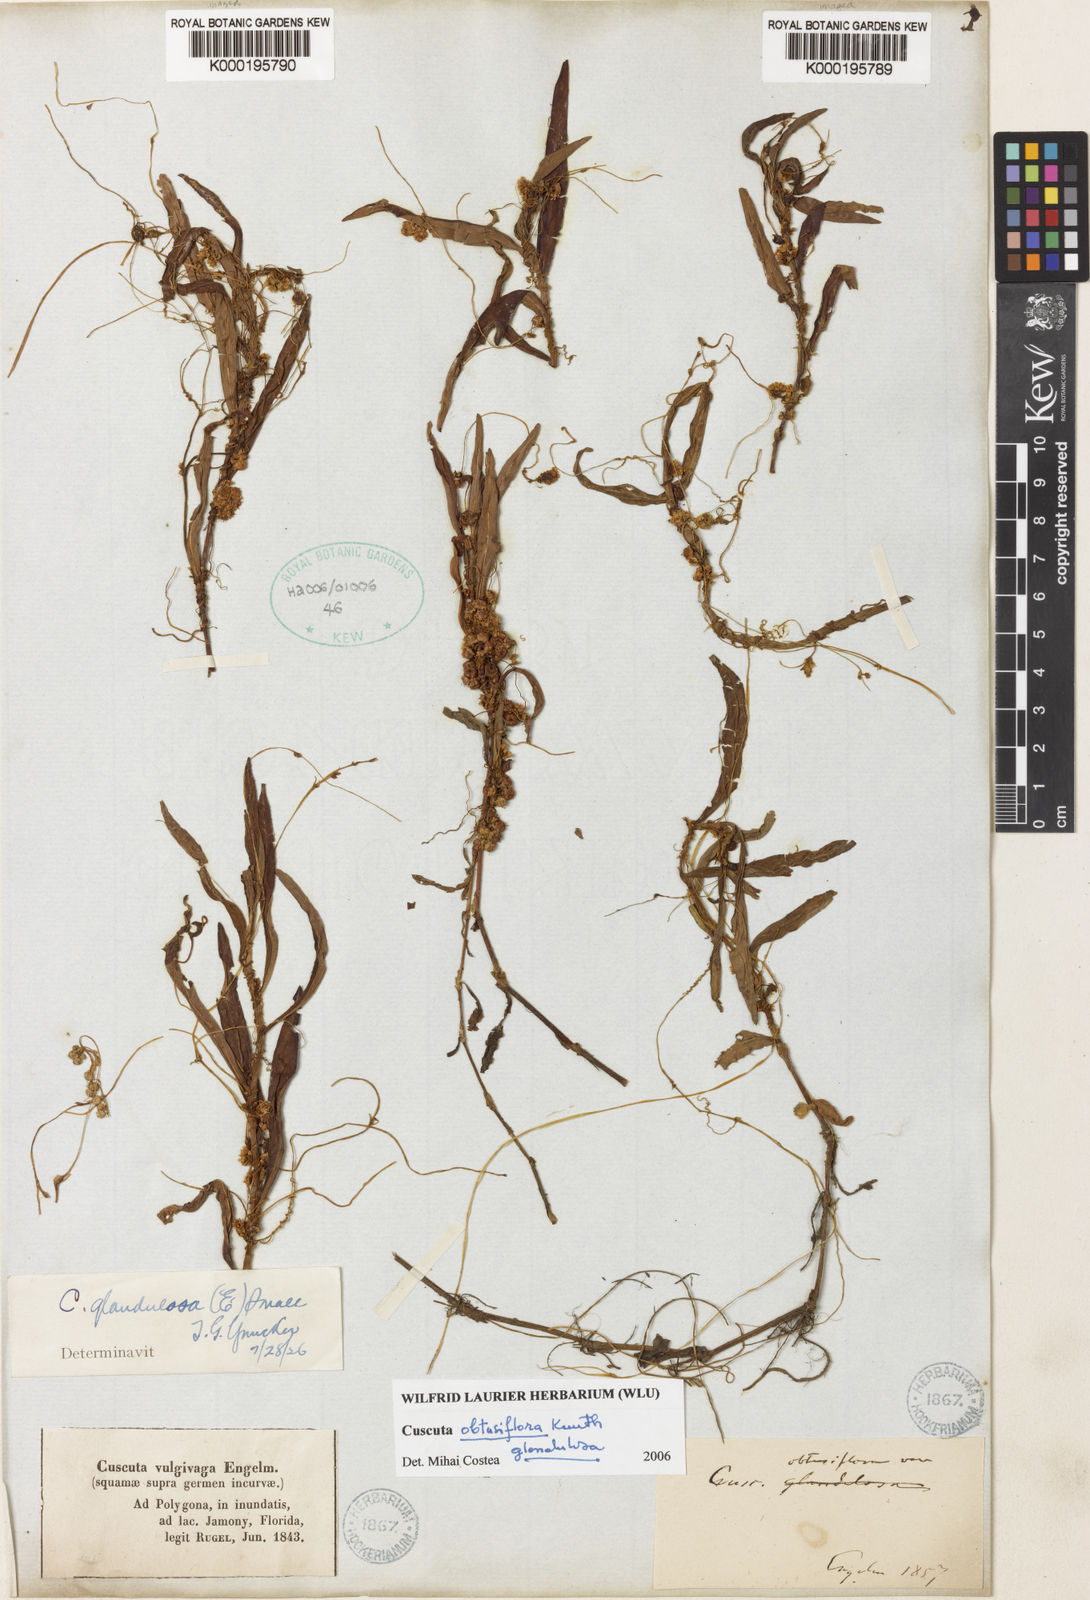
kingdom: Plantae
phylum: Tracheophyta
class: Magnoliopsida
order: Solanales
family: Convolvulaceae
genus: Cuscuta
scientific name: Cuscuta obtusiflora
